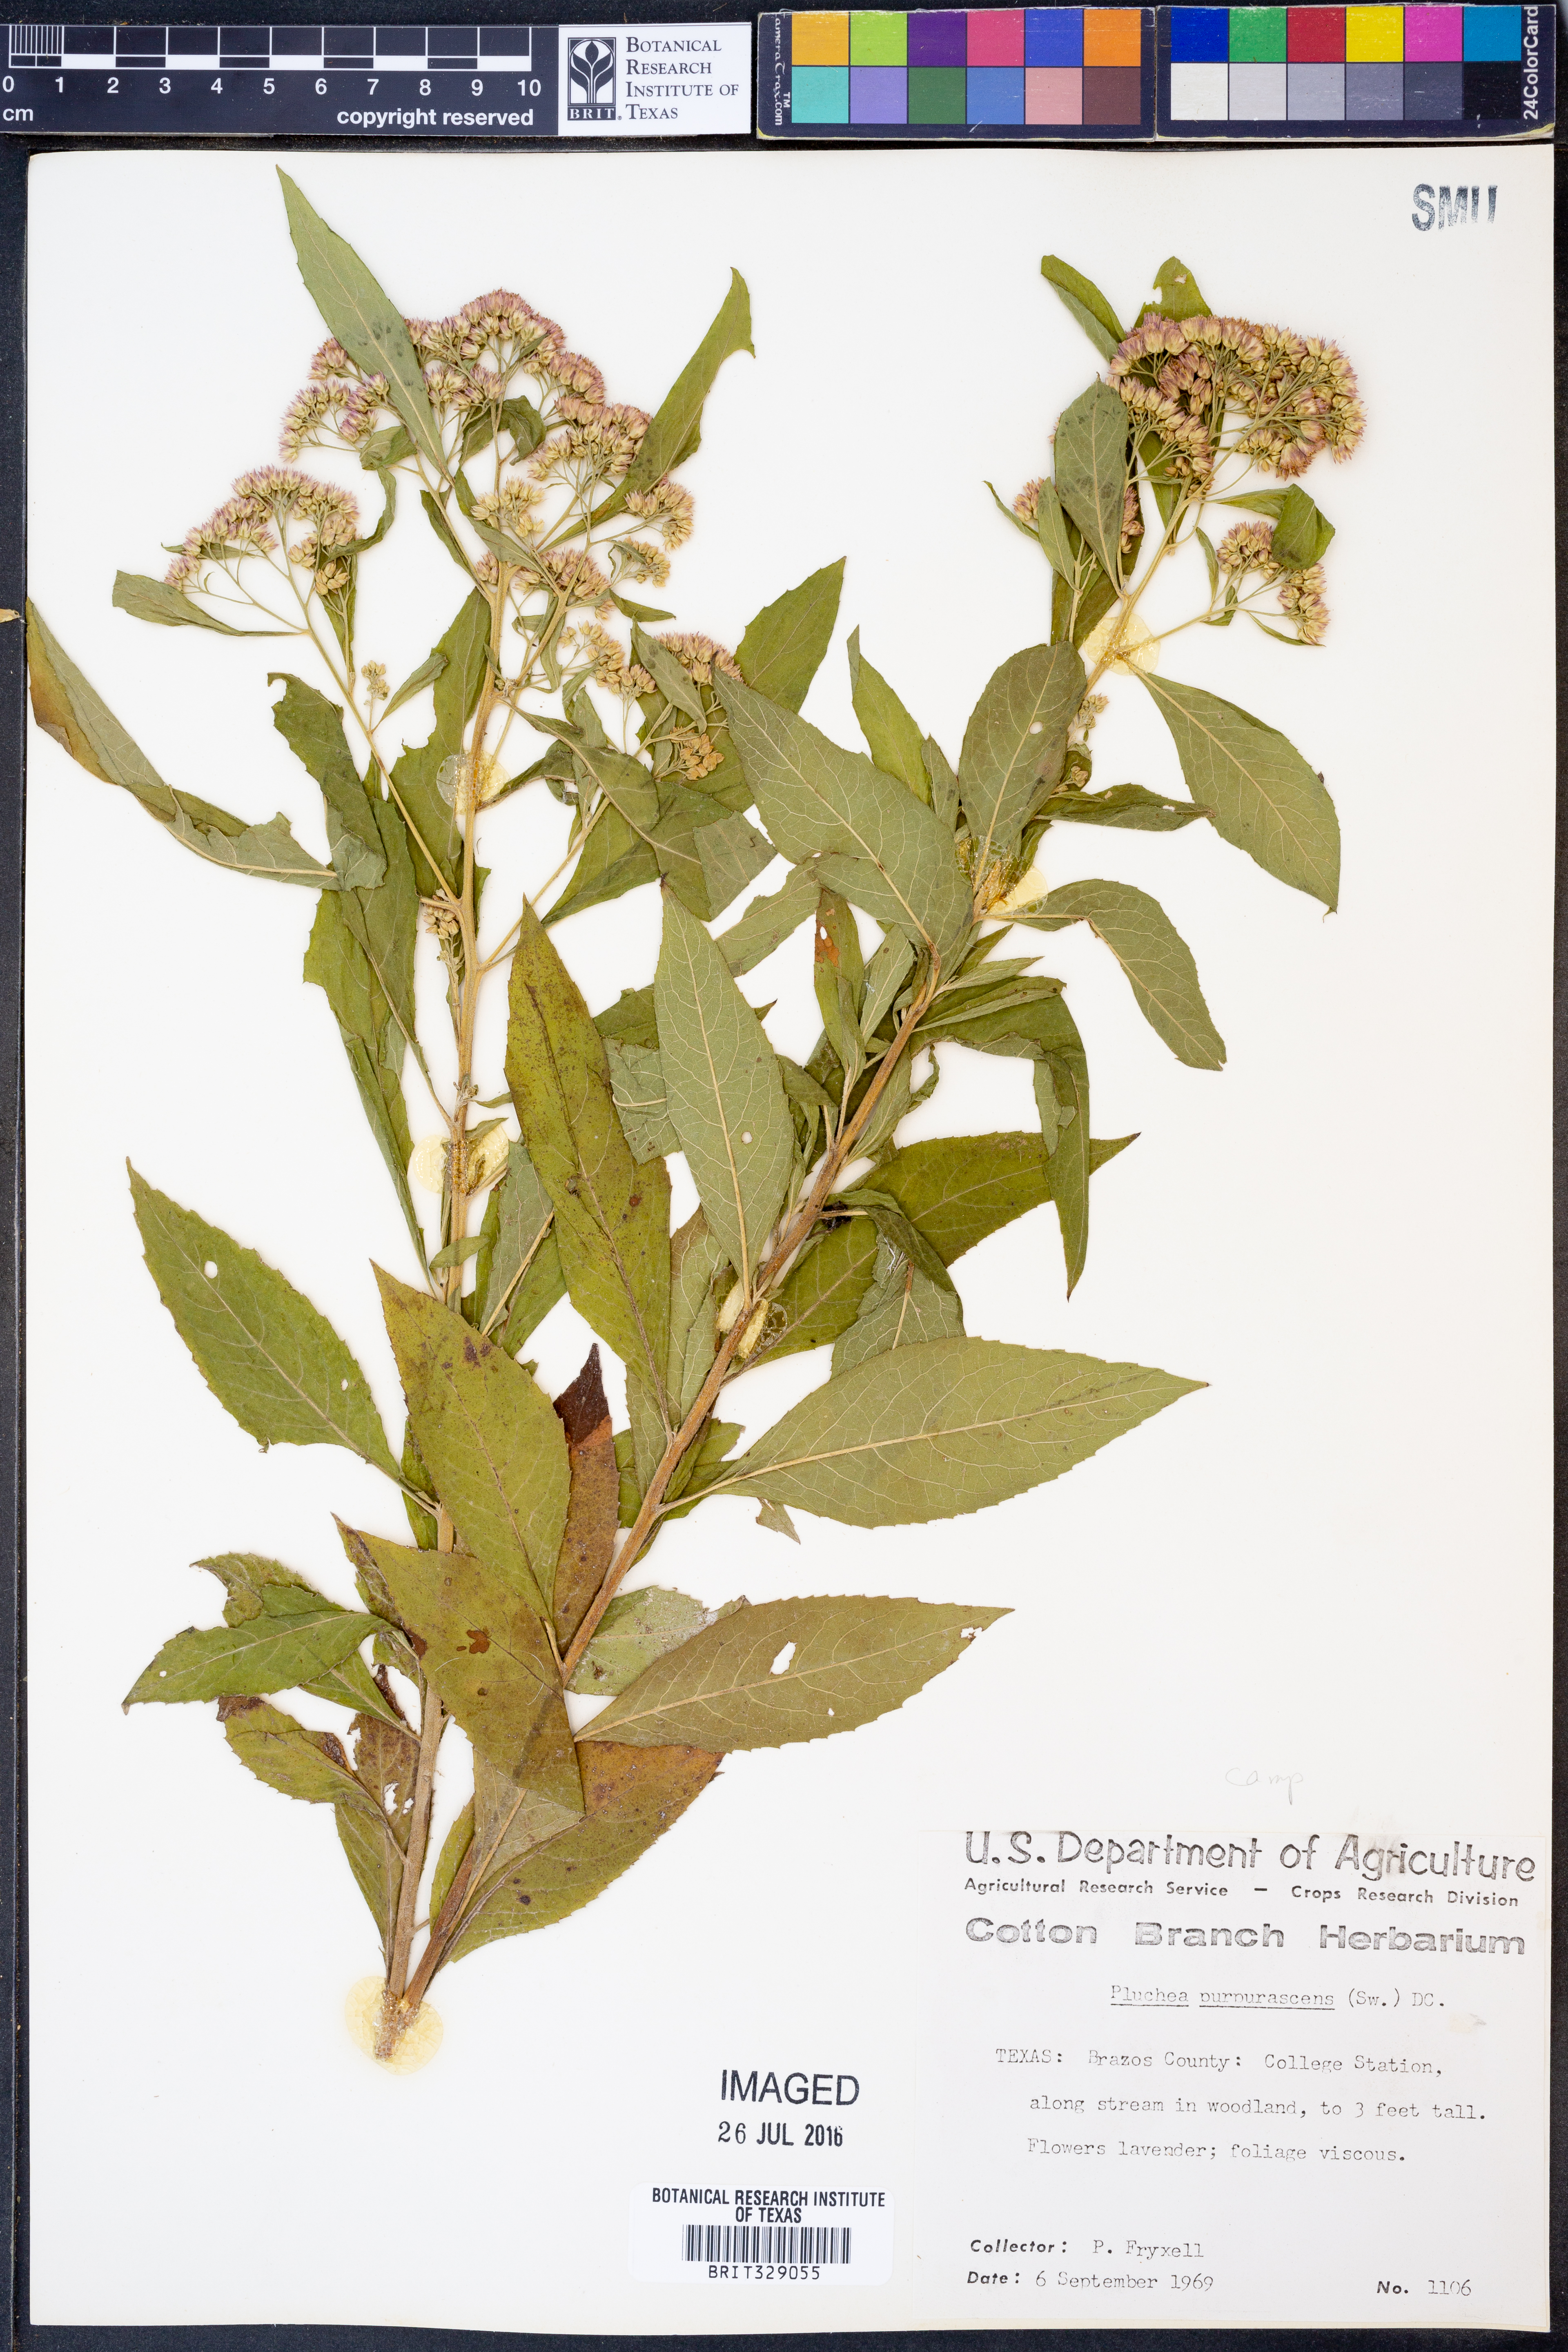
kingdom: Plantae
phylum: Tracheophyta
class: Magnoliopsida
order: Asterales
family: Asteraceae
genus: Pluchea
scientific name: Pluchea odorata
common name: Saltmarsh fleabane
